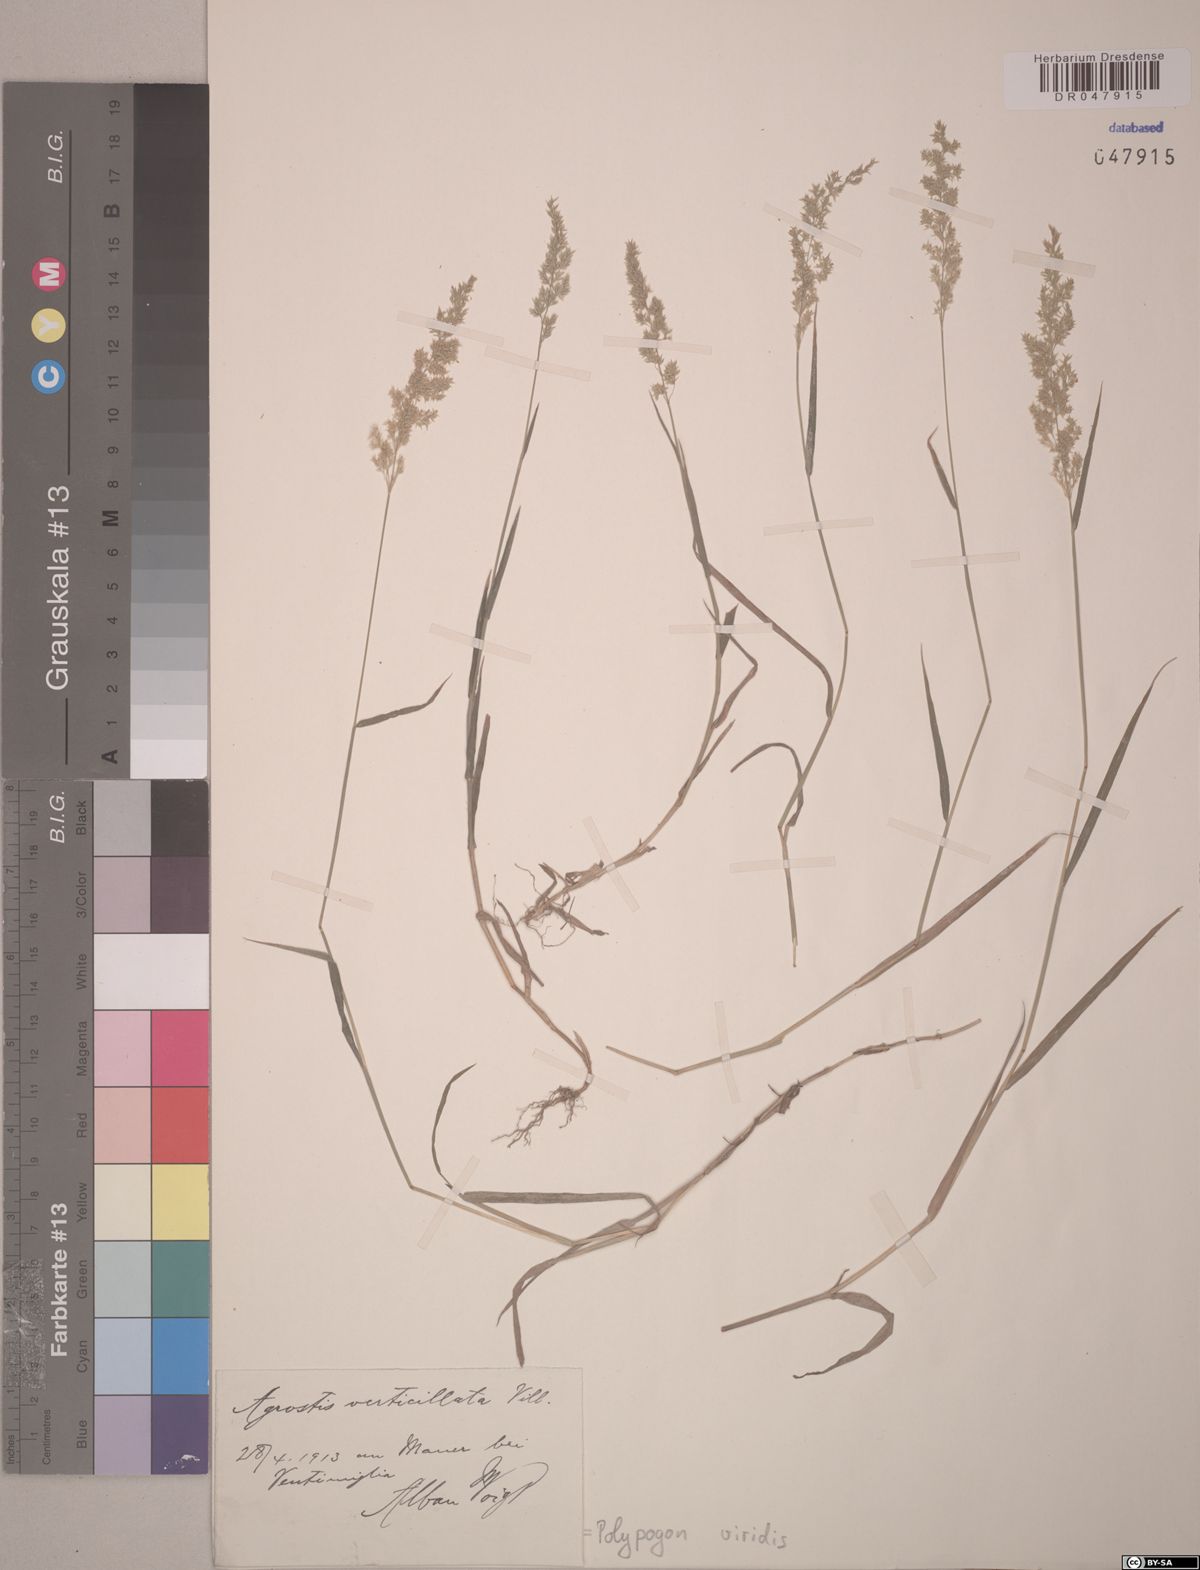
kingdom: Plantae
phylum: Tracheophyta
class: Liliopsida
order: Poales
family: Poaceae
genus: Polypogon
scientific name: Polypogon viridis
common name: Water bent
